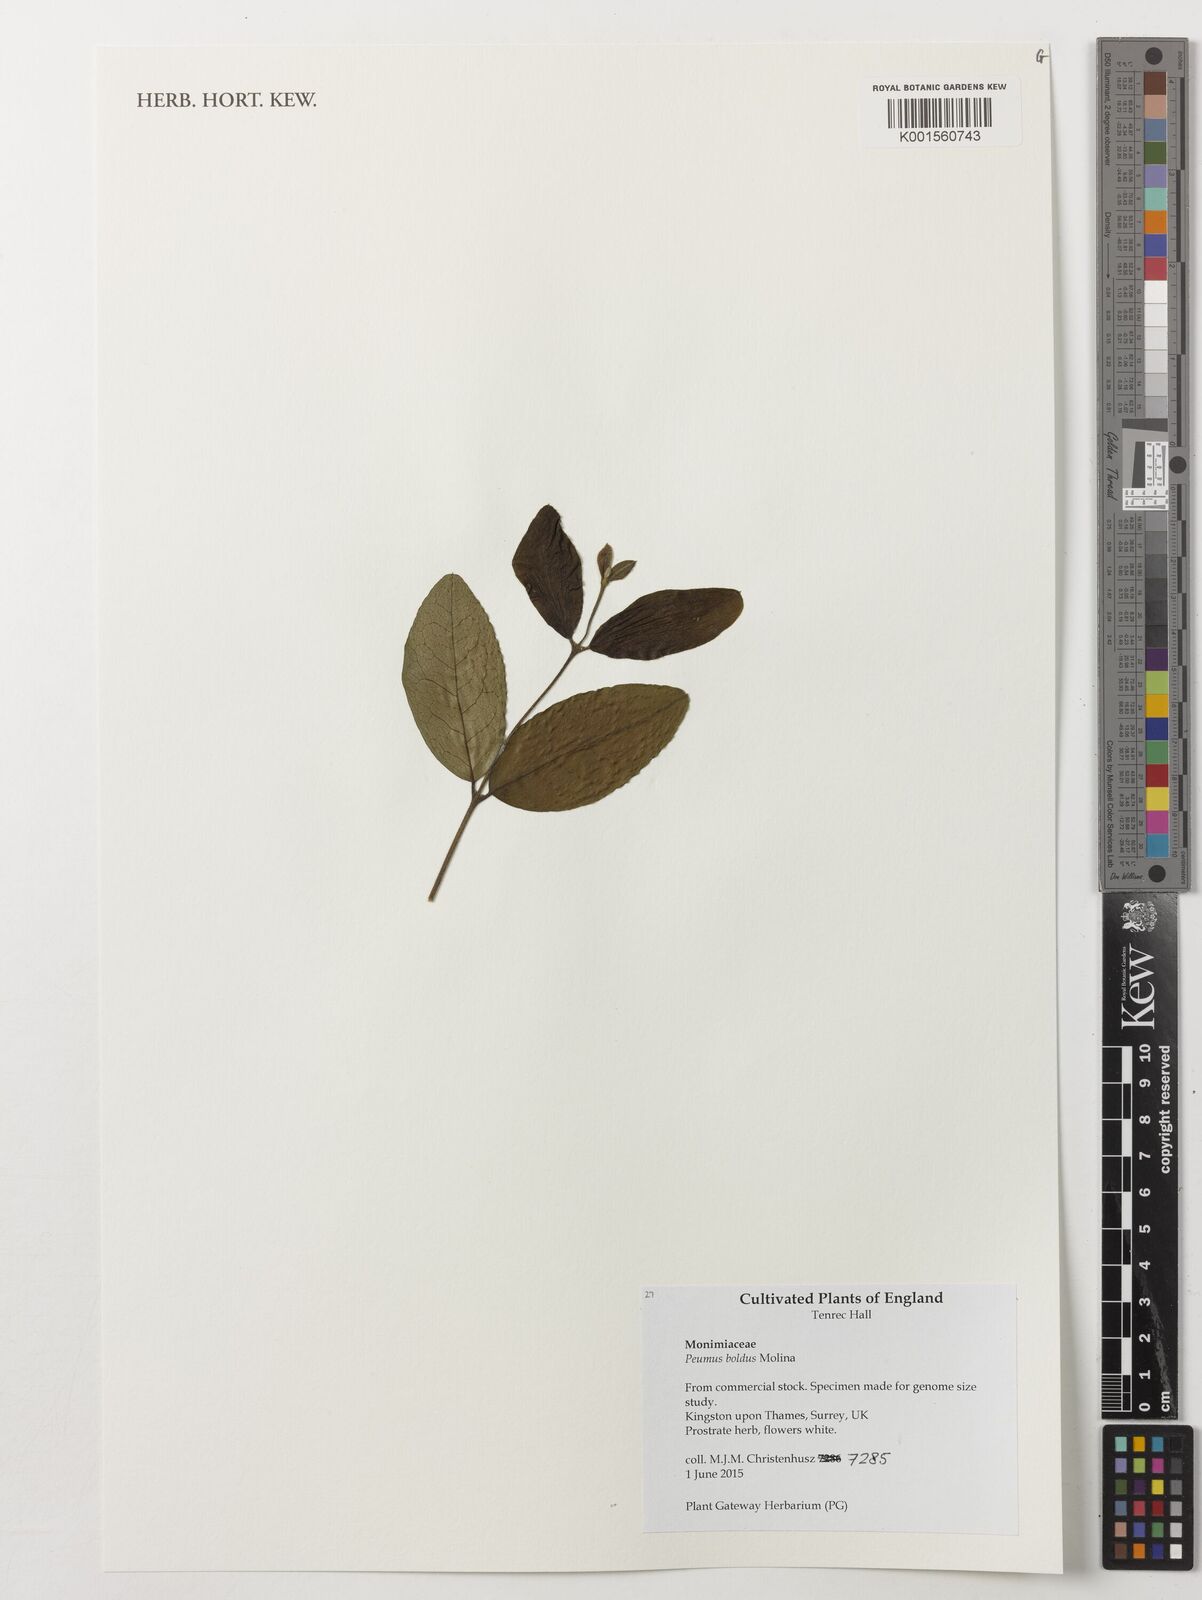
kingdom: Plantae
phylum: Tracheophyta
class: Magnoliopsida
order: Laurales
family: Monimiaceae
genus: Peumus
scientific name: Peumus boldus
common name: Boldo
